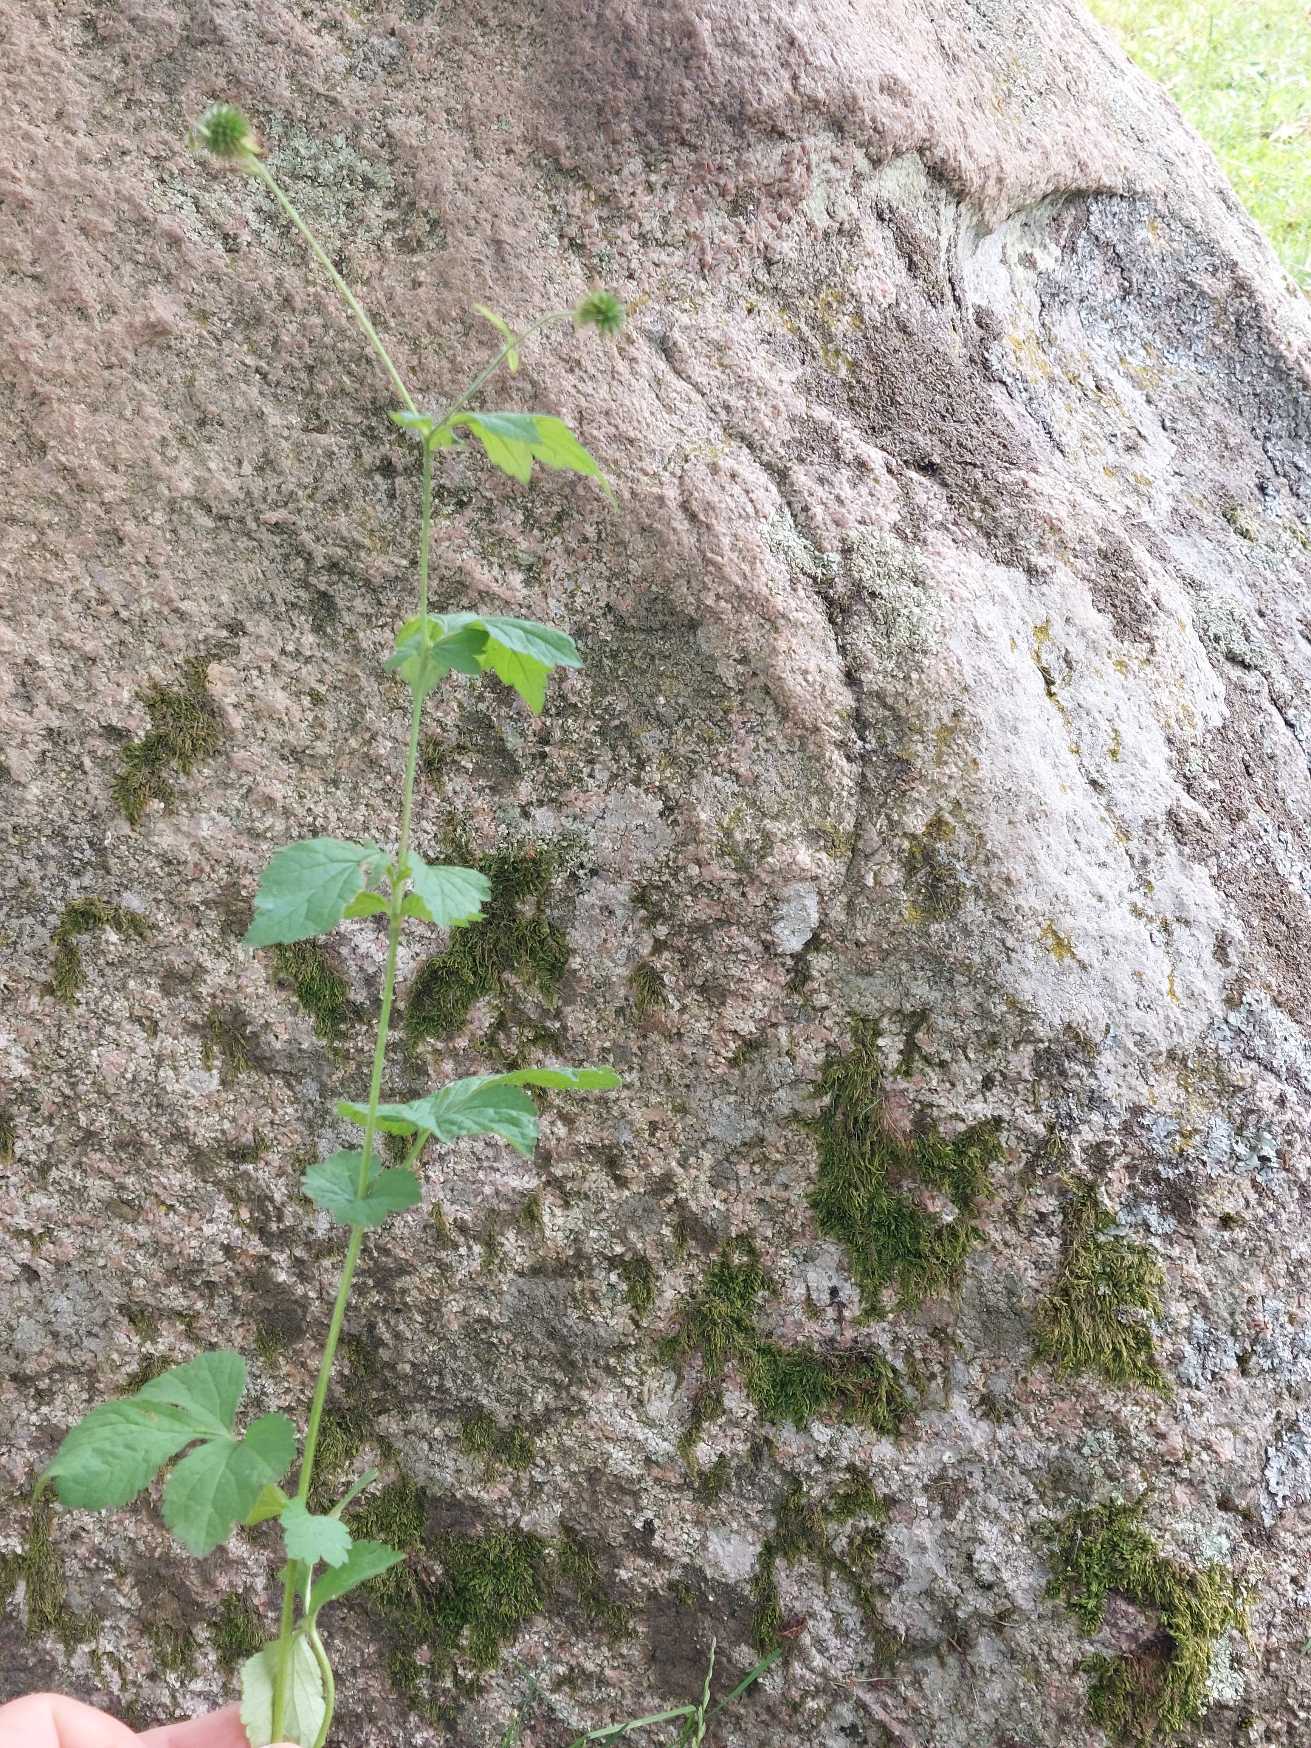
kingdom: Plantae
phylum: Tracheophyta
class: Magnoliopsida
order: Rosales
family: Rosaceae
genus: Geum
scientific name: Geum urbanum
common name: Feber-nellikerod
